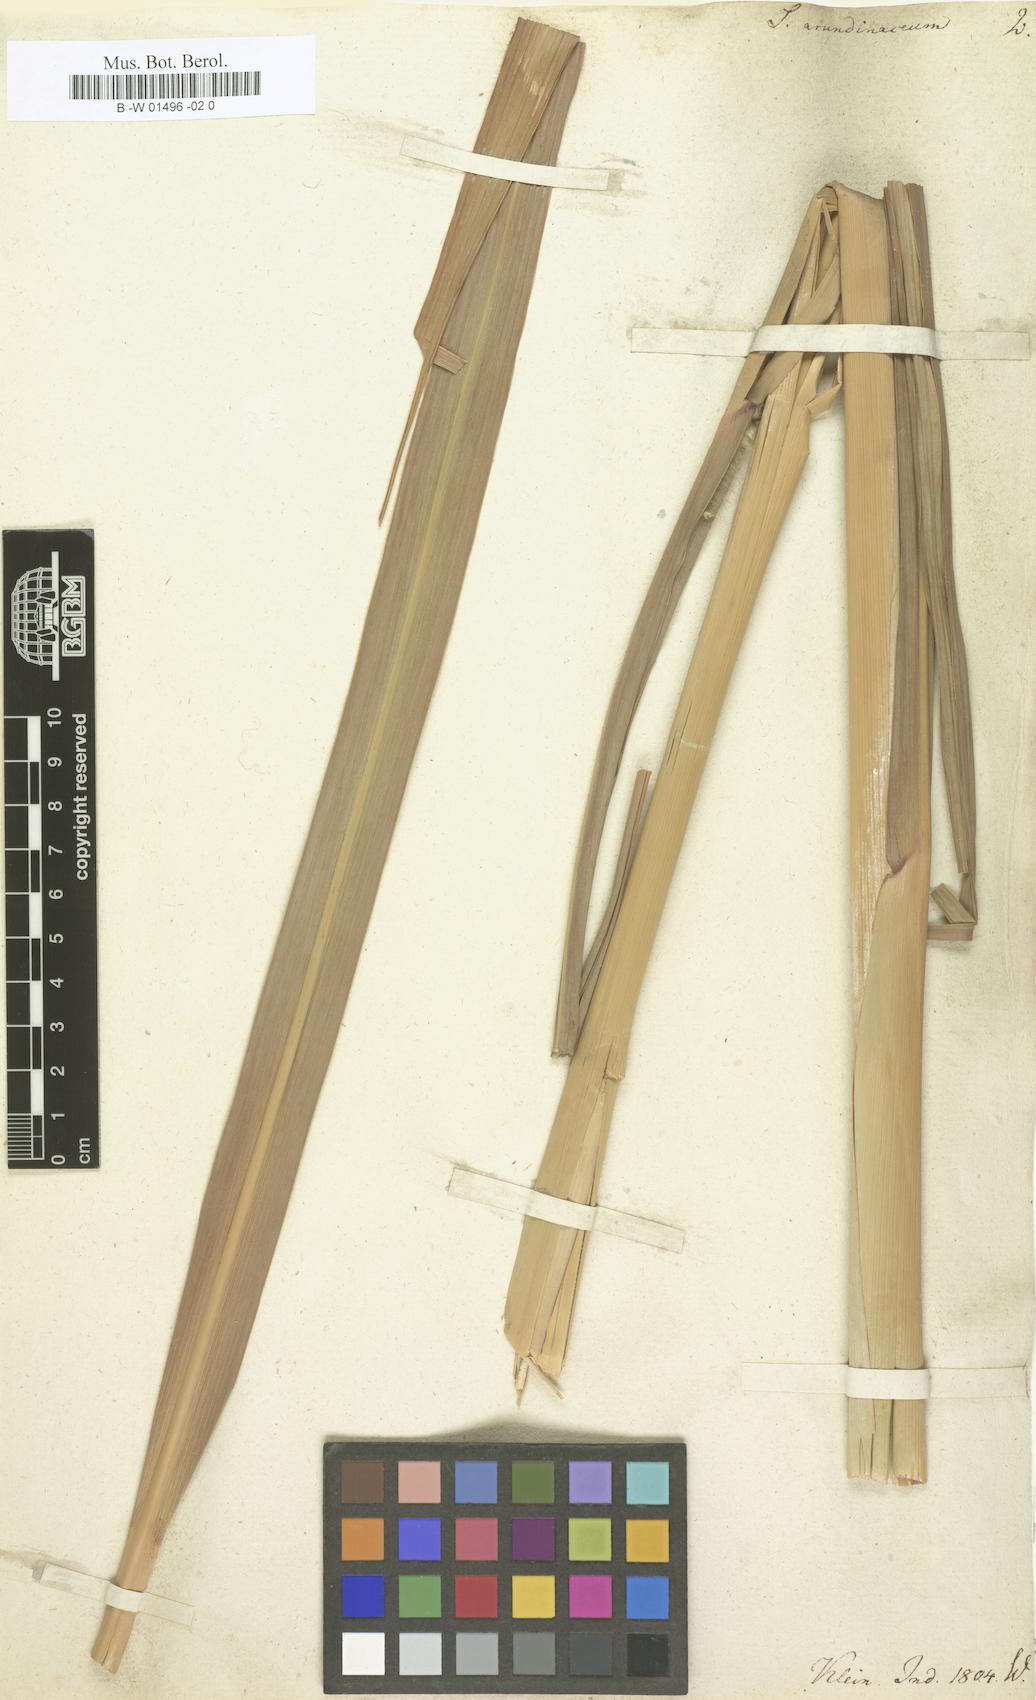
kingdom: Plantae
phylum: Tracheophyta
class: Liliopsida
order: Poales
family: Poaceae
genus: Tripidium
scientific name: Tripidium arundinaceum
